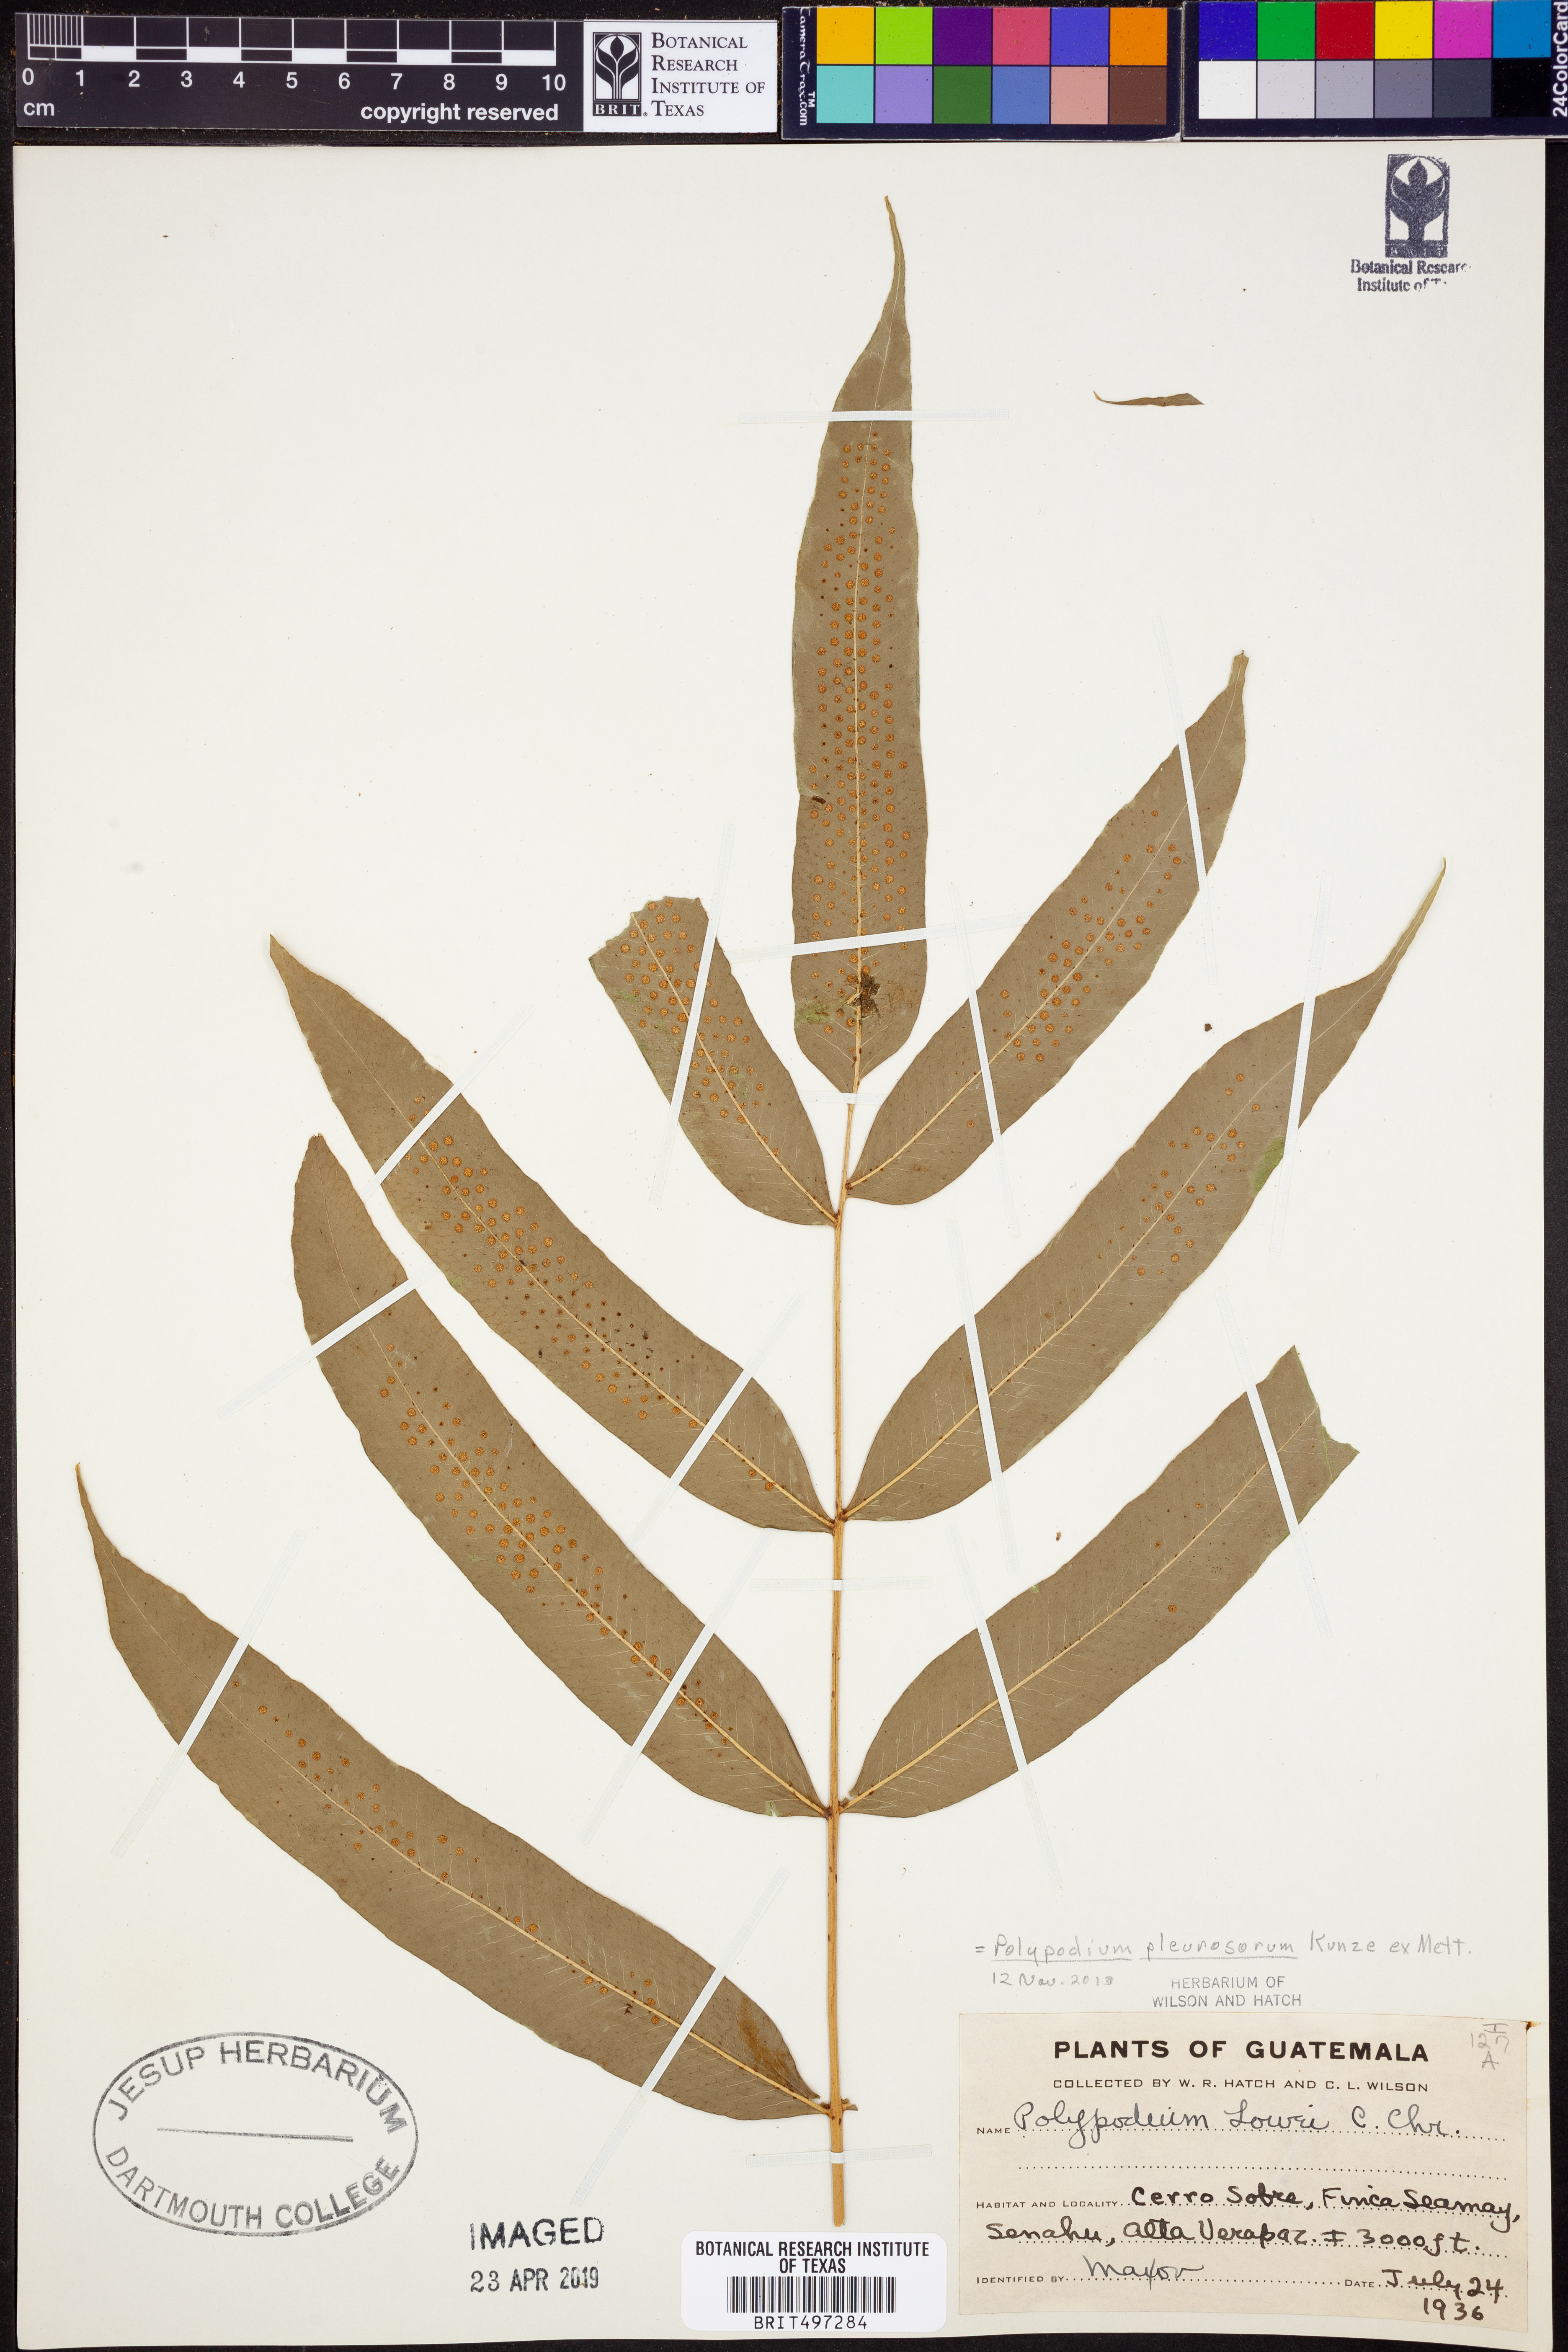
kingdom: Plantae
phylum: Tracheophyta
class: Polypodiopsida
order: Polypodiales
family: Polypodiaceae
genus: Polypodium
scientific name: Polypodium pleurosorum
